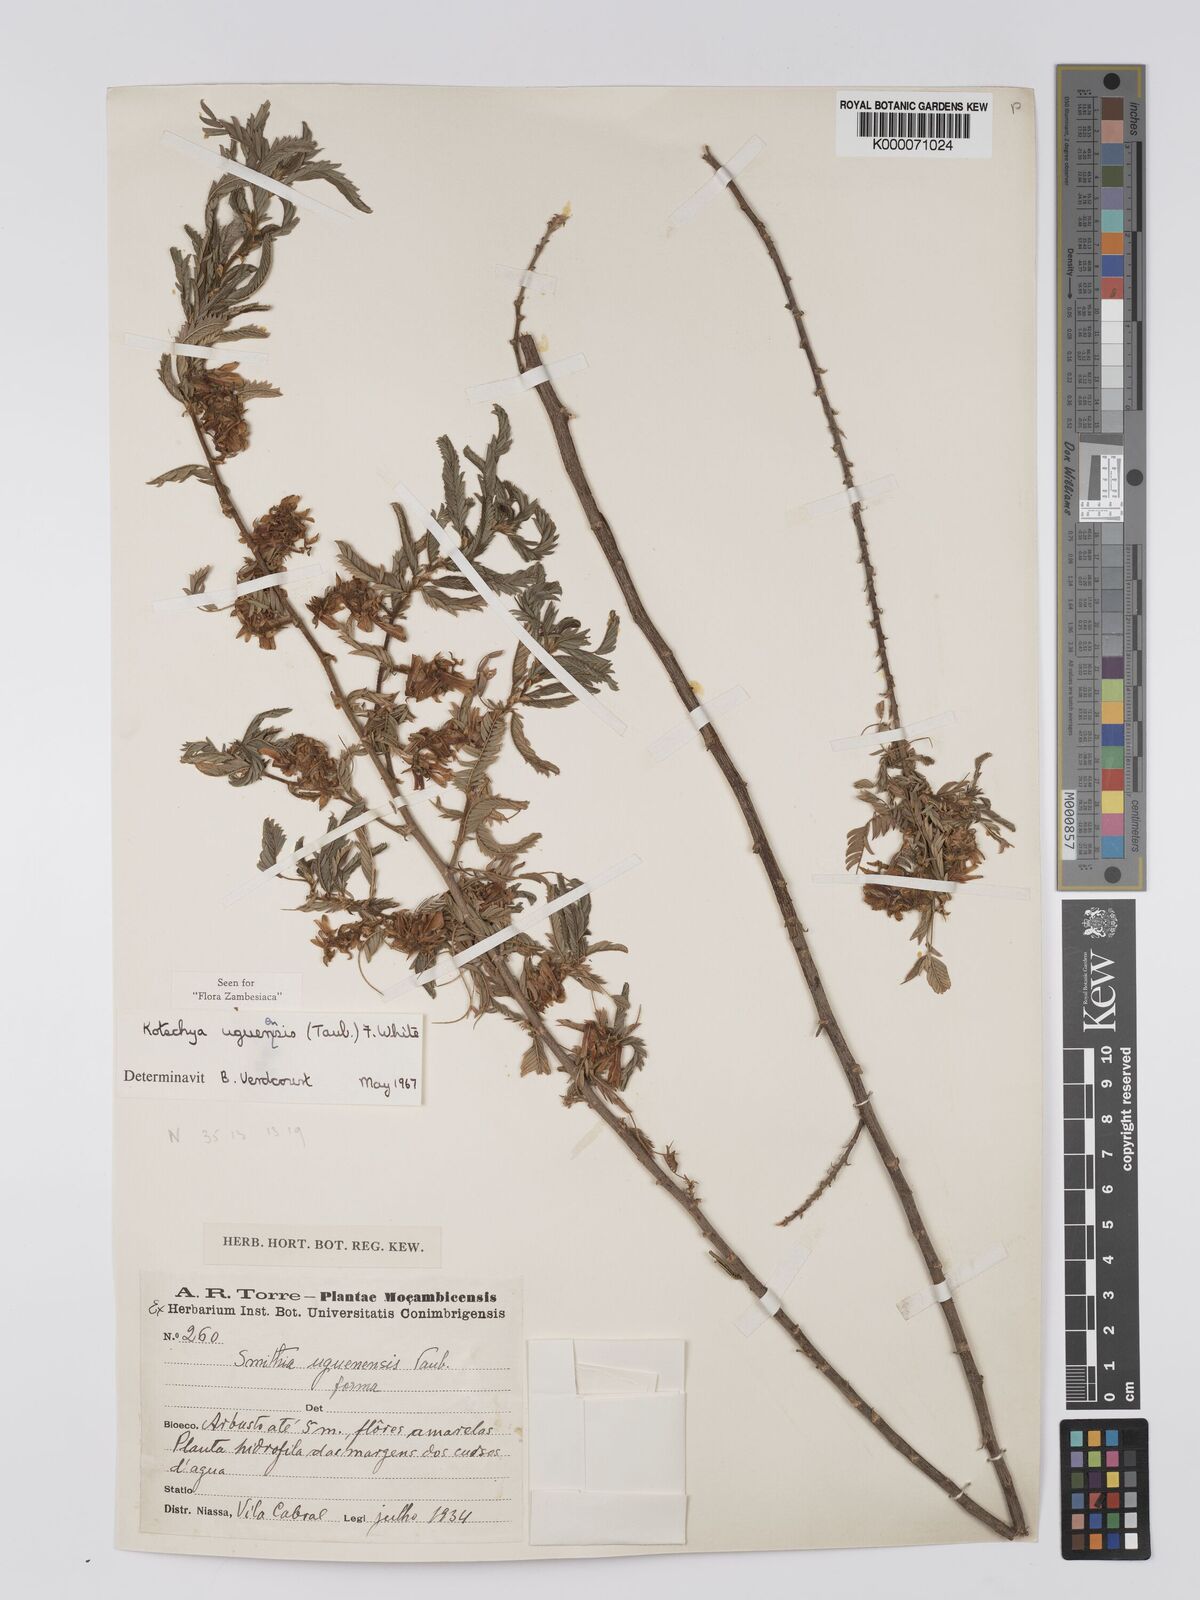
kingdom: Plantae
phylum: Tracheophyta
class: Magnoliopsida
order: Fabales
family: Fabaceae
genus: Kotschya
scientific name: Kotschya uguenensis
